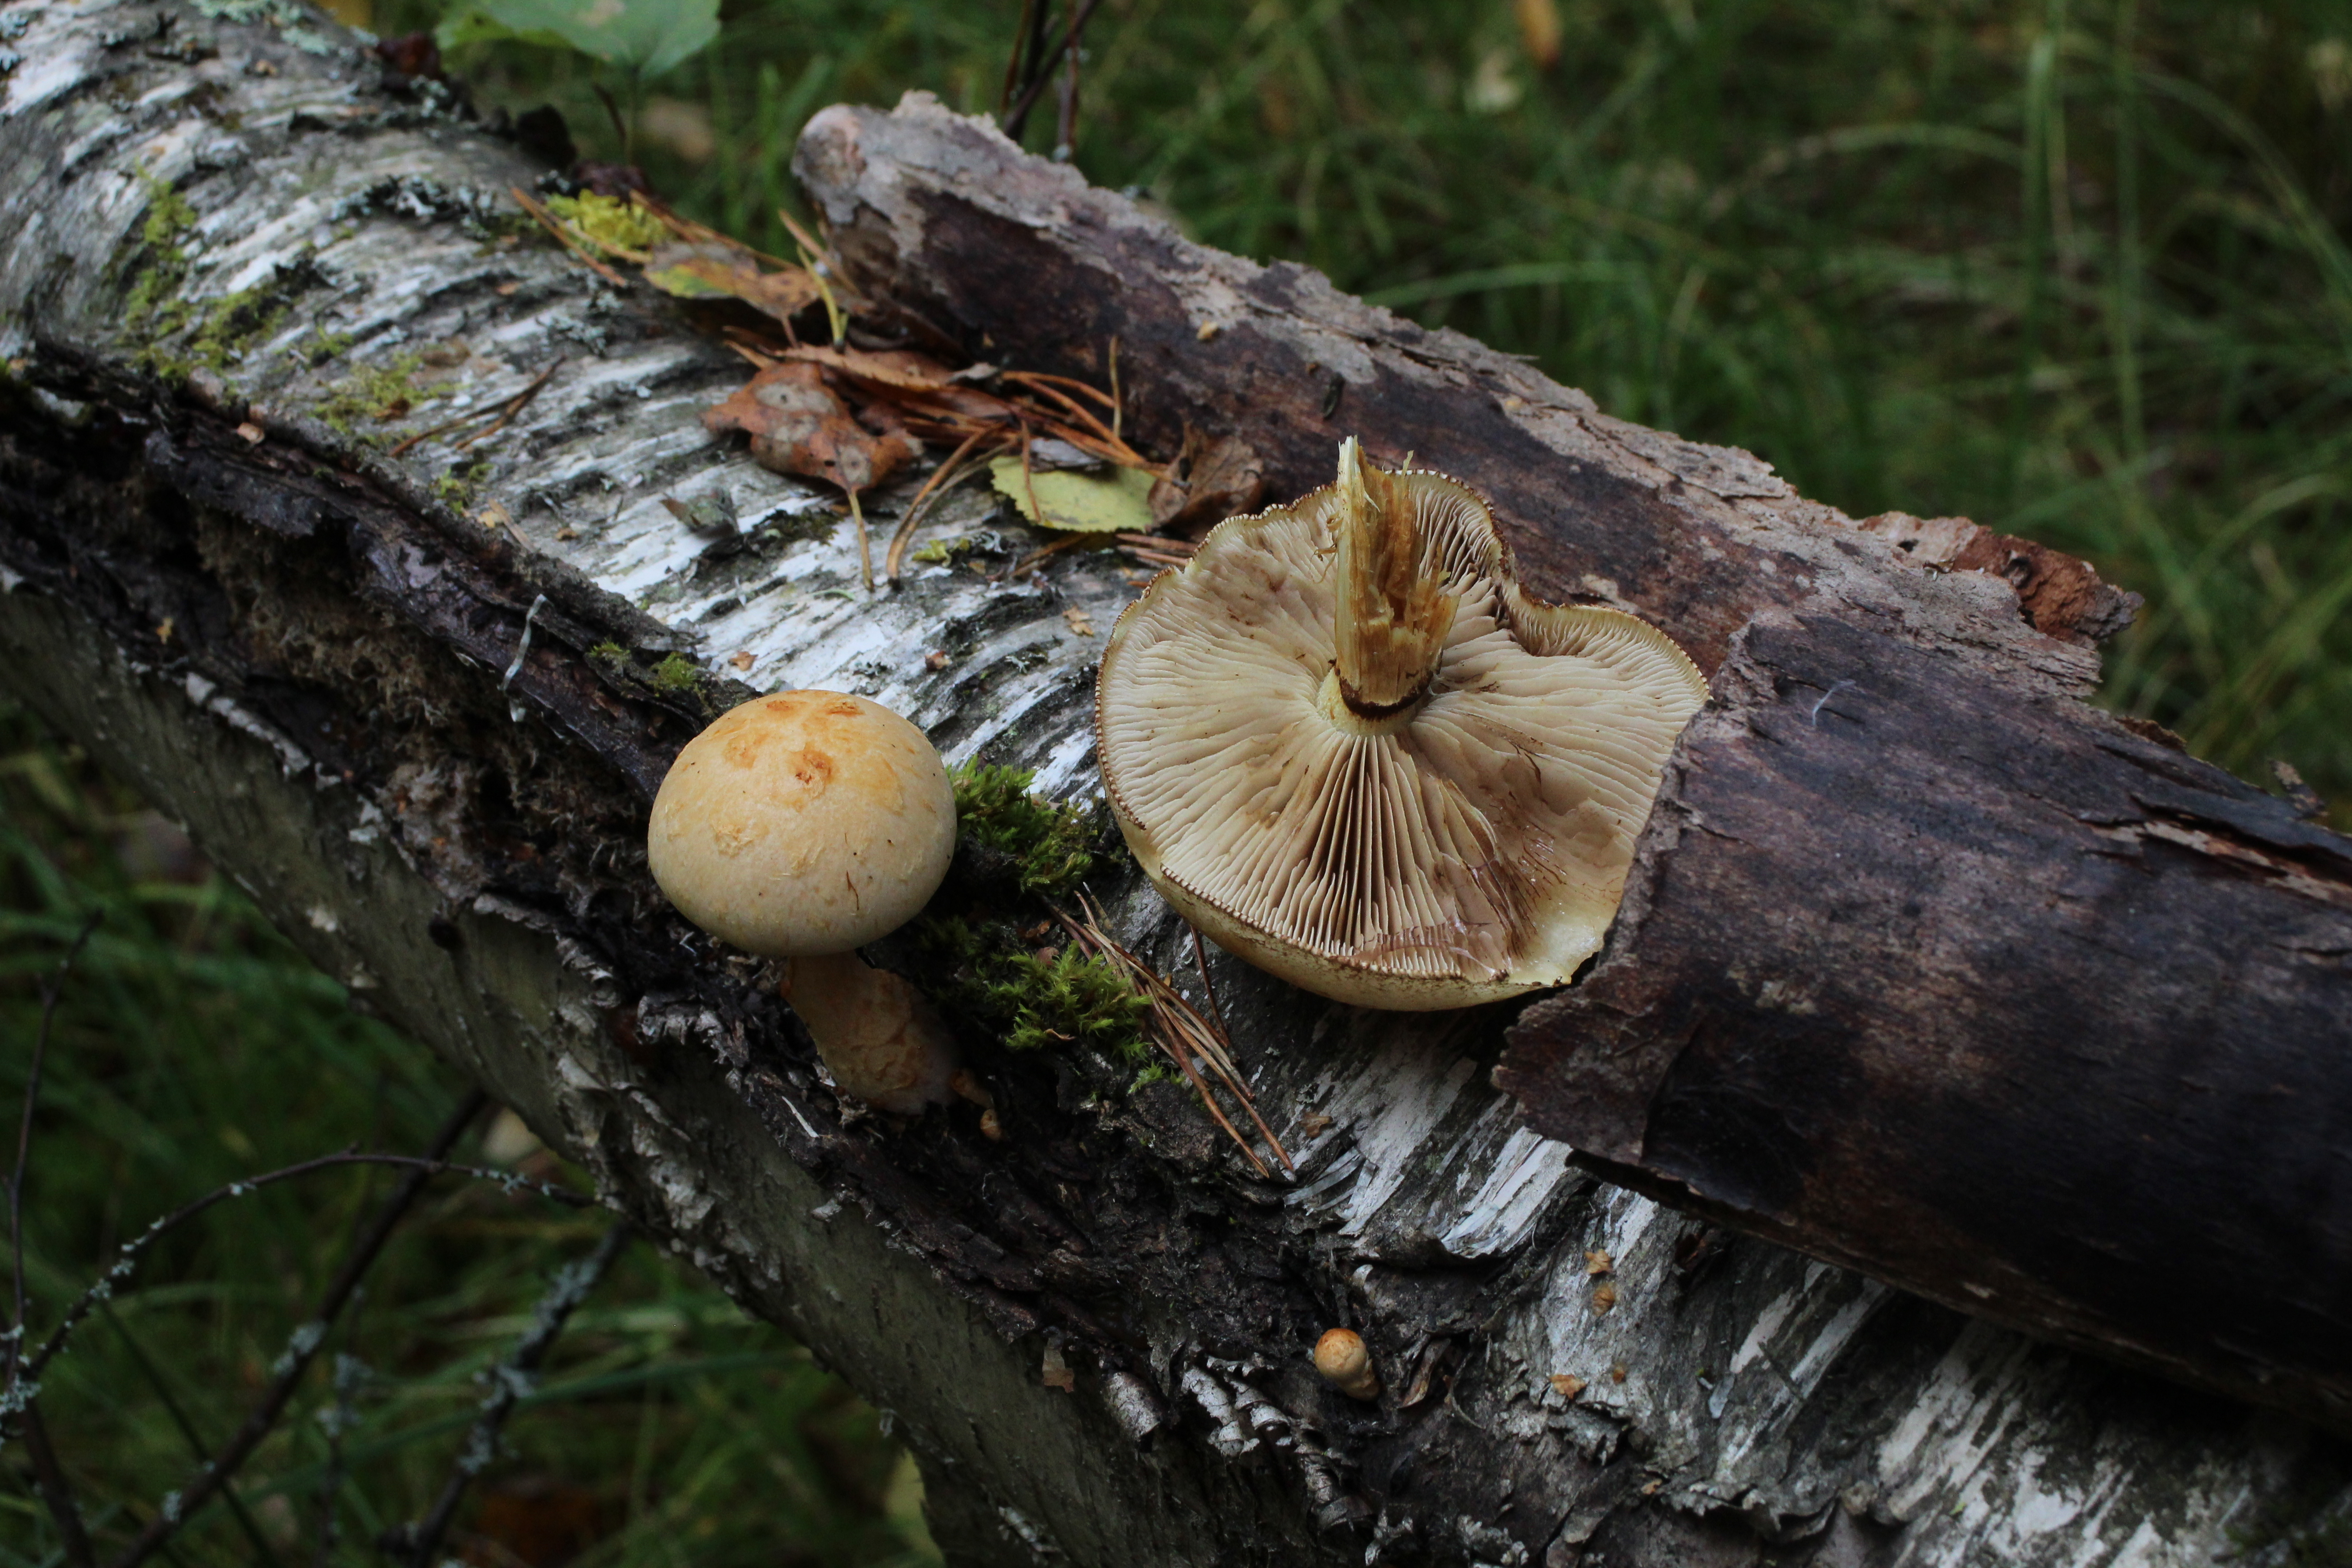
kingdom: Fungi
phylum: Basidiomycota
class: Agaricomycetes
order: Agaricales
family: Strophariaceae
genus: Pholiota
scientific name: Pholiota heteroclita
